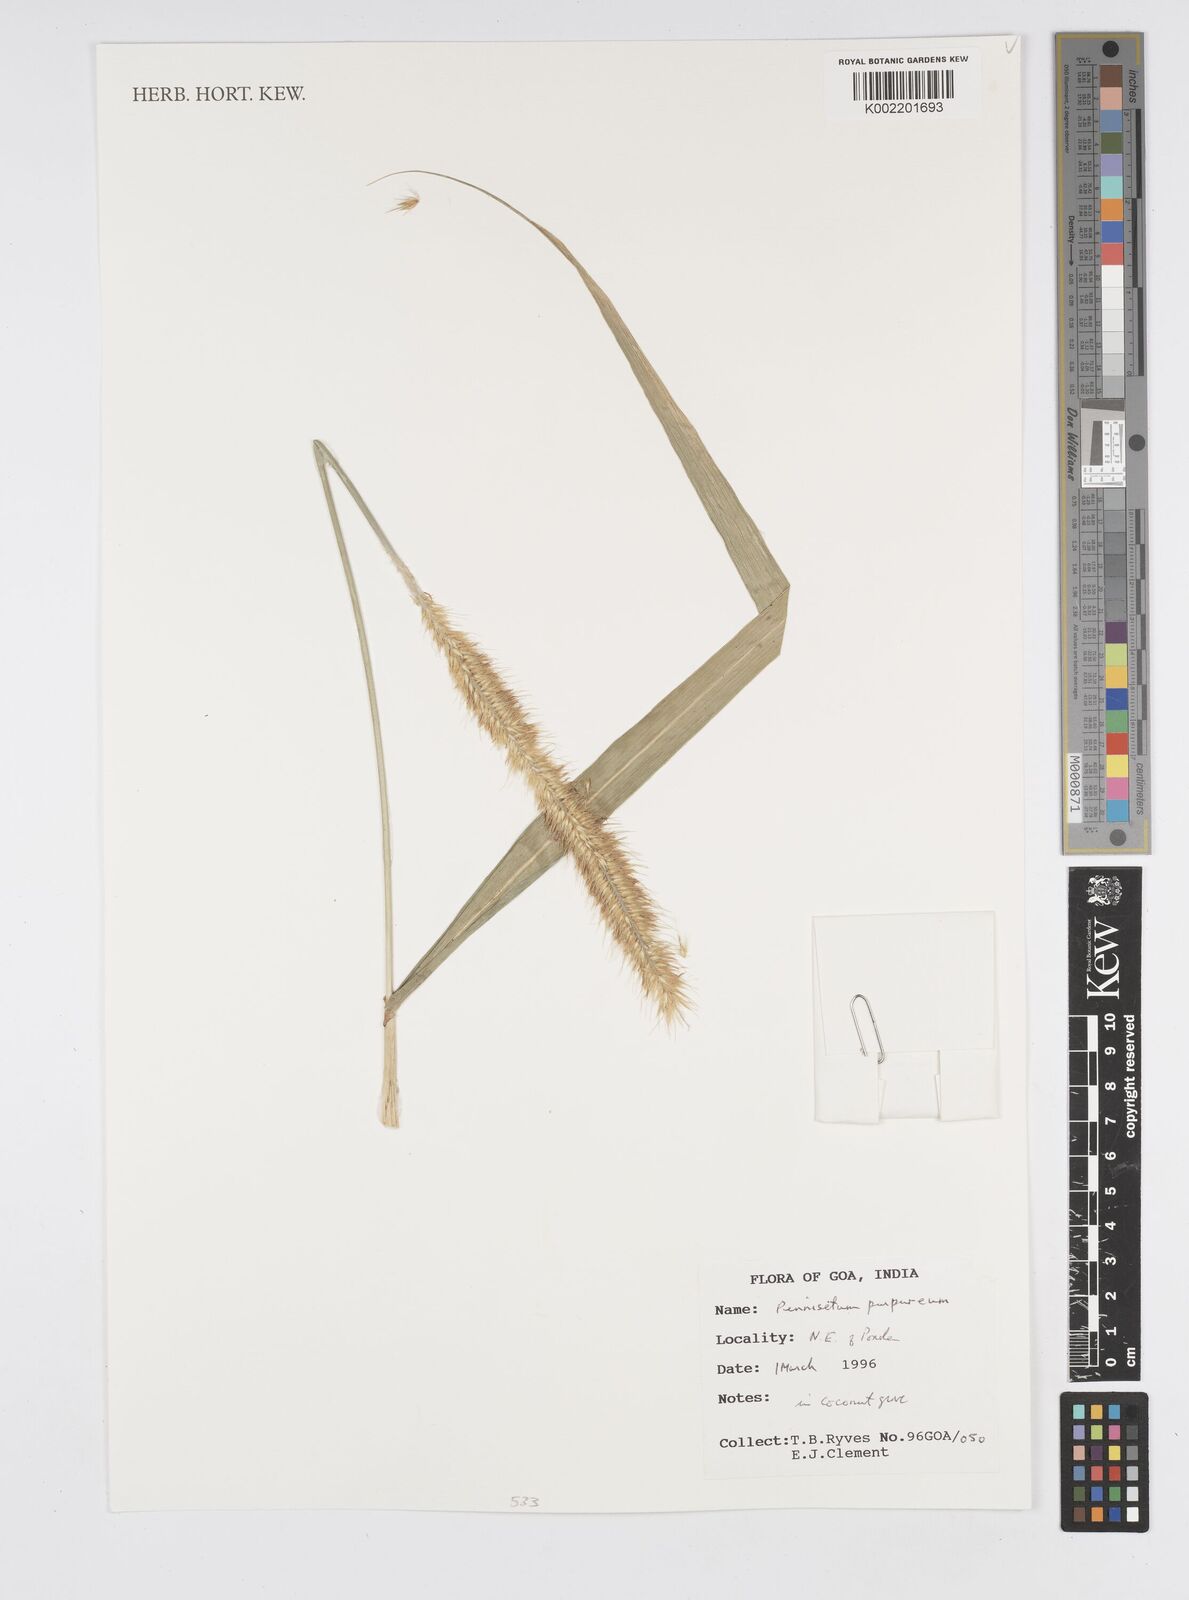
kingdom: Plantae
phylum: Tracheophyta
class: Liliopsida
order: Poales
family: Poaceae
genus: Cenchrus
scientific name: Cenchrus purpureus
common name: Elephant grass
